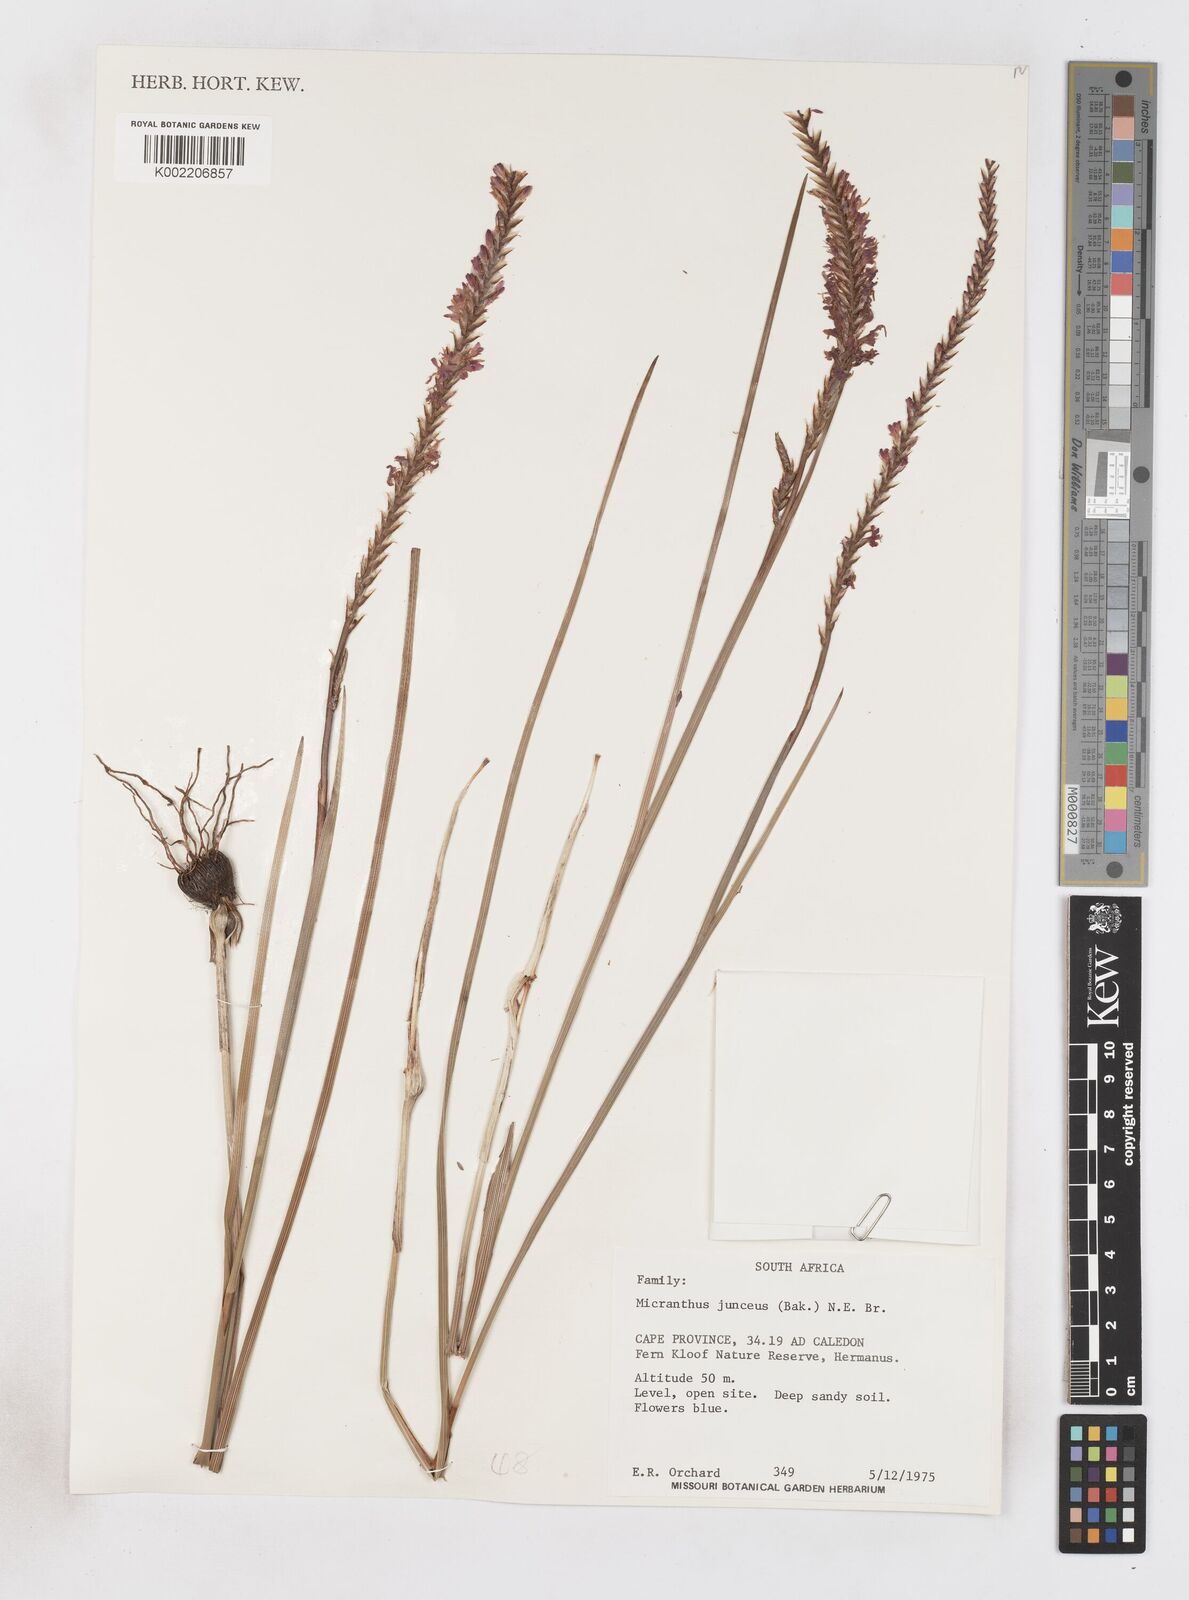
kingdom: Plantae
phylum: Tracheophyta
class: Liliopsida
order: Asparagales
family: Iridaceae
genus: Micranthus
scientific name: Micranthus plantagineus
